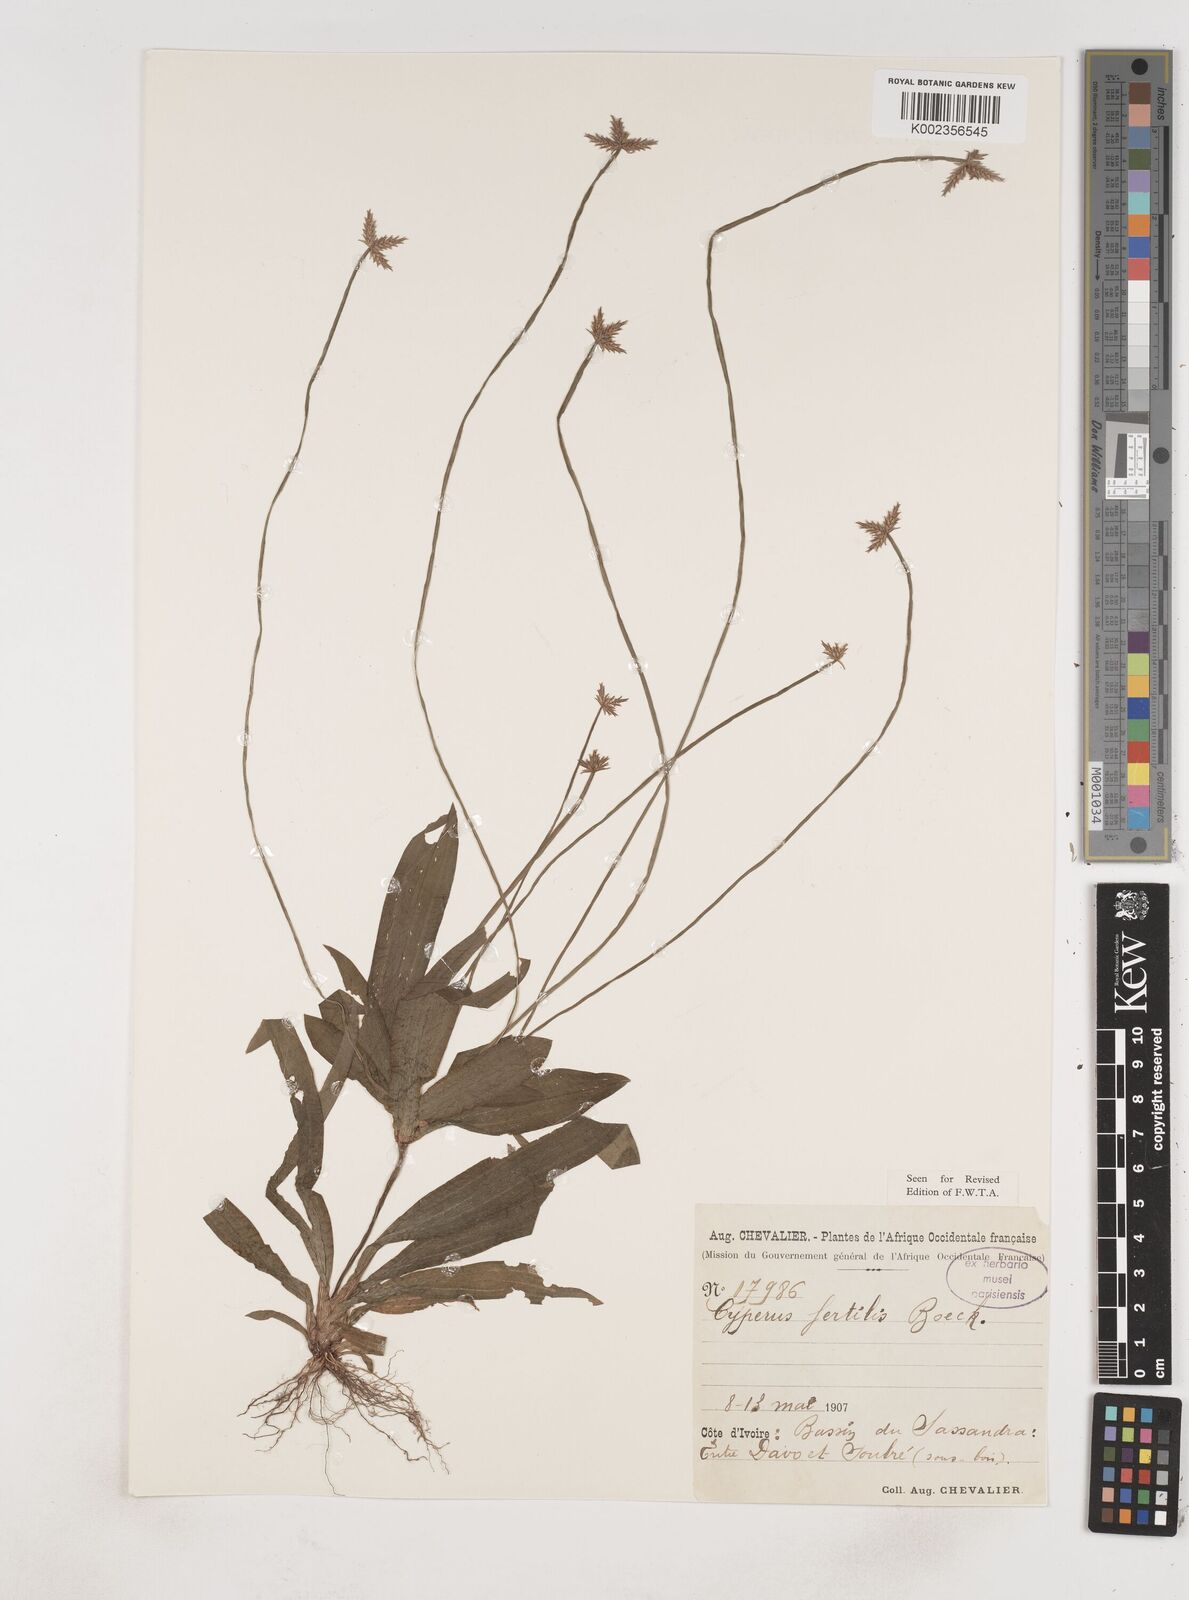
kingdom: Plantae
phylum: Tracheophyta
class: Liliopsida
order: Poales
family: Cyperaceae
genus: Cyperus
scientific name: Cyperus fertilis
